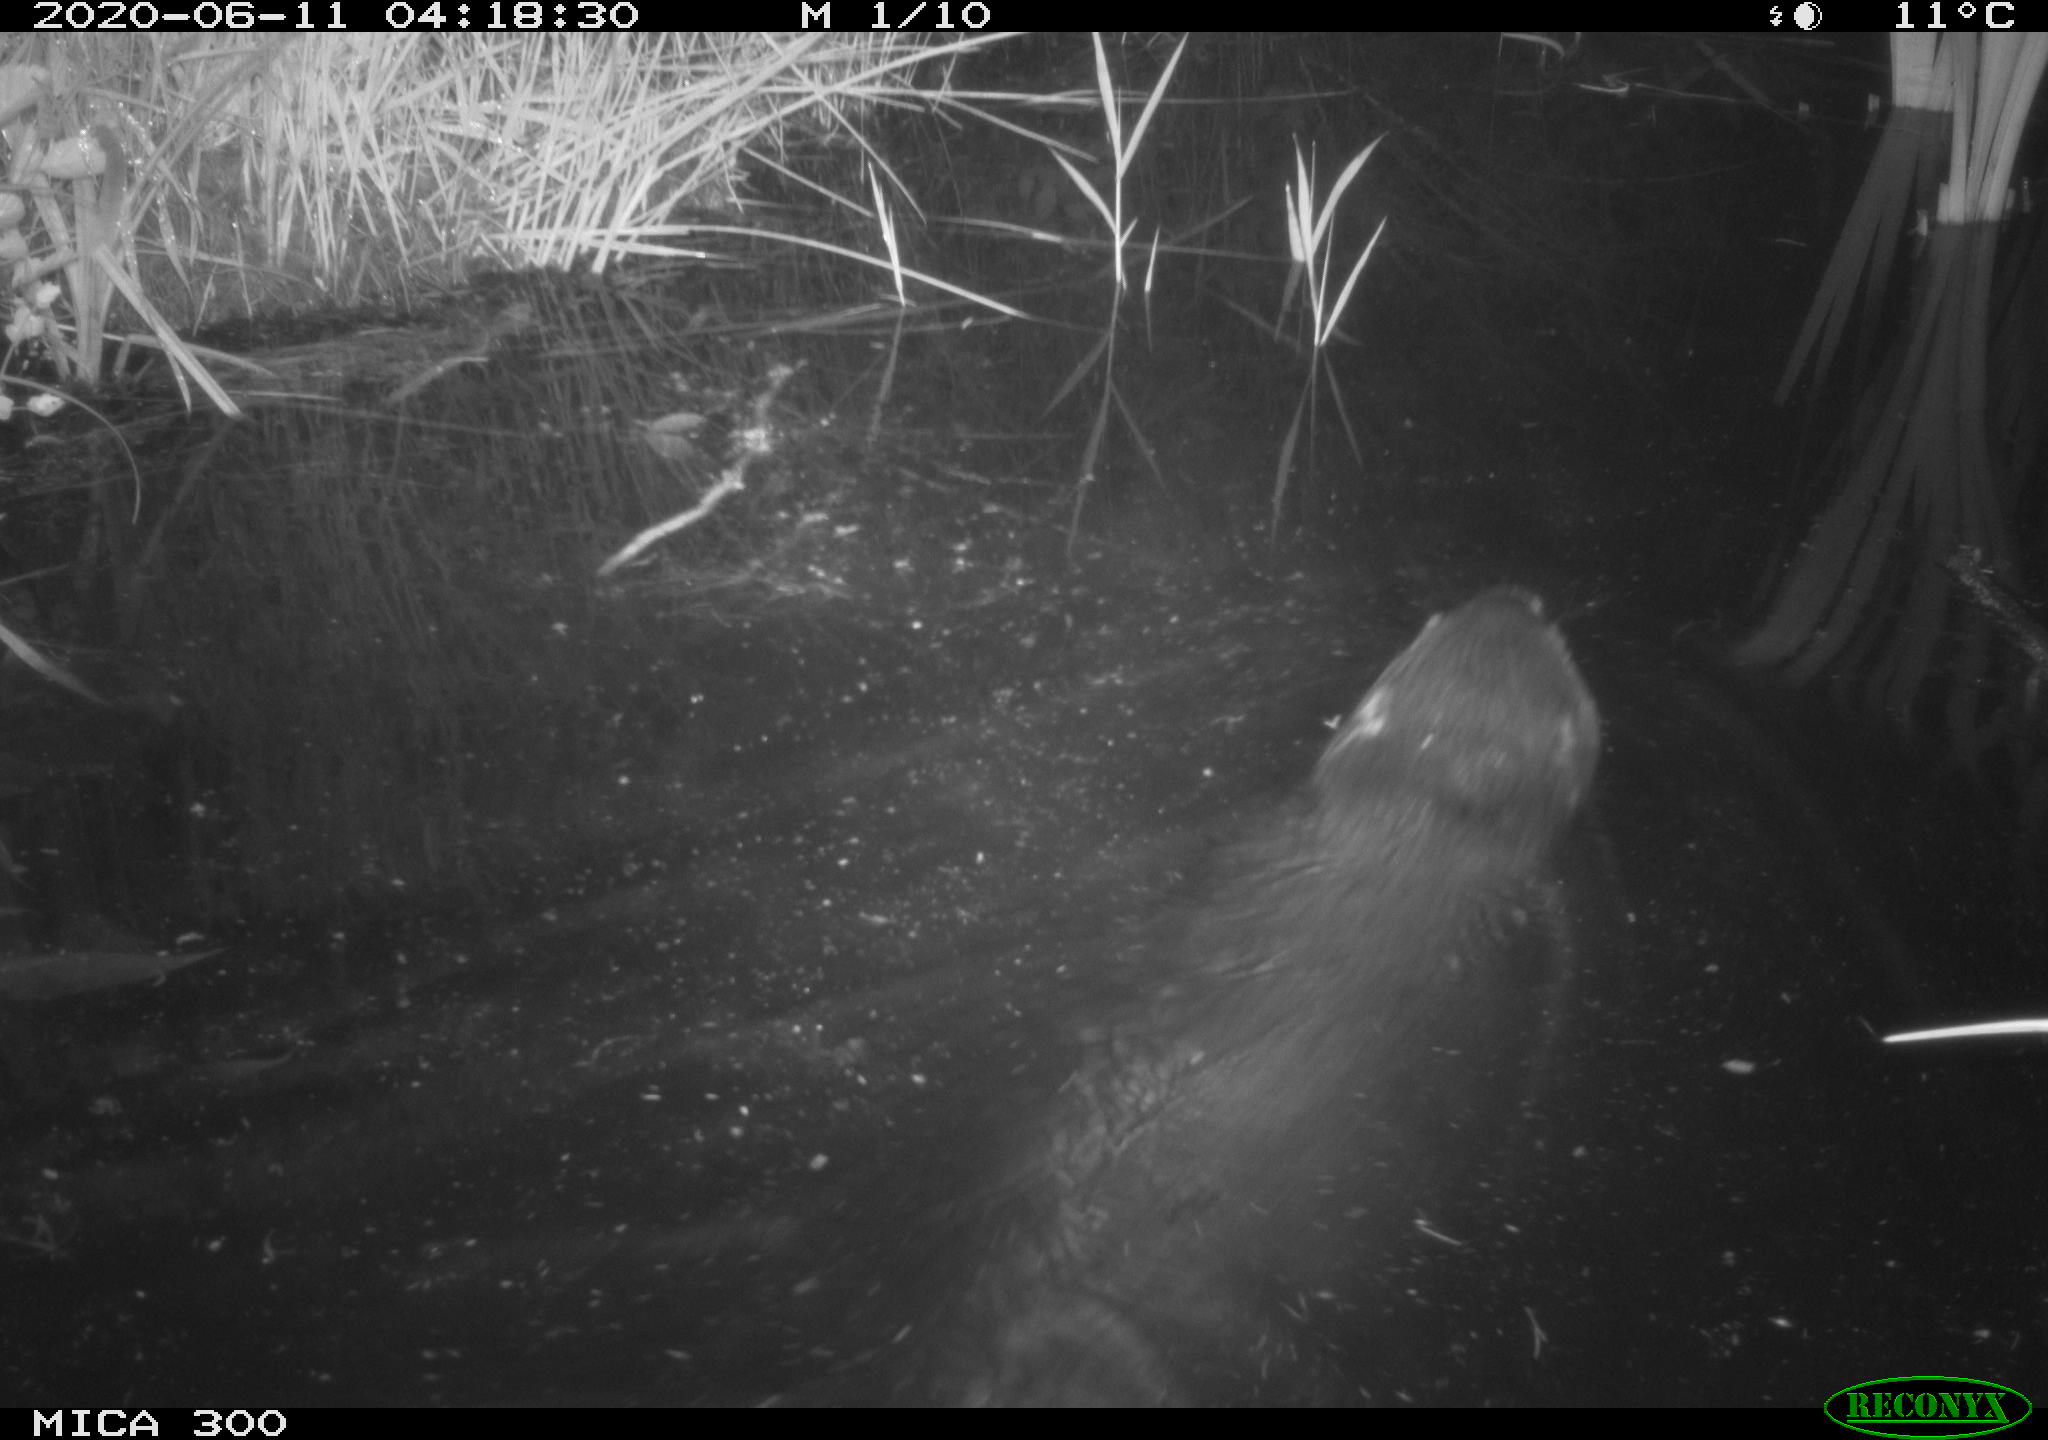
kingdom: Animalia
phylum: Chordata
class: Mammalia
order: Rodentia
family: Castoridae
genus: Castor
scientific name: Castor fiber
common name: Eurasian beaver
